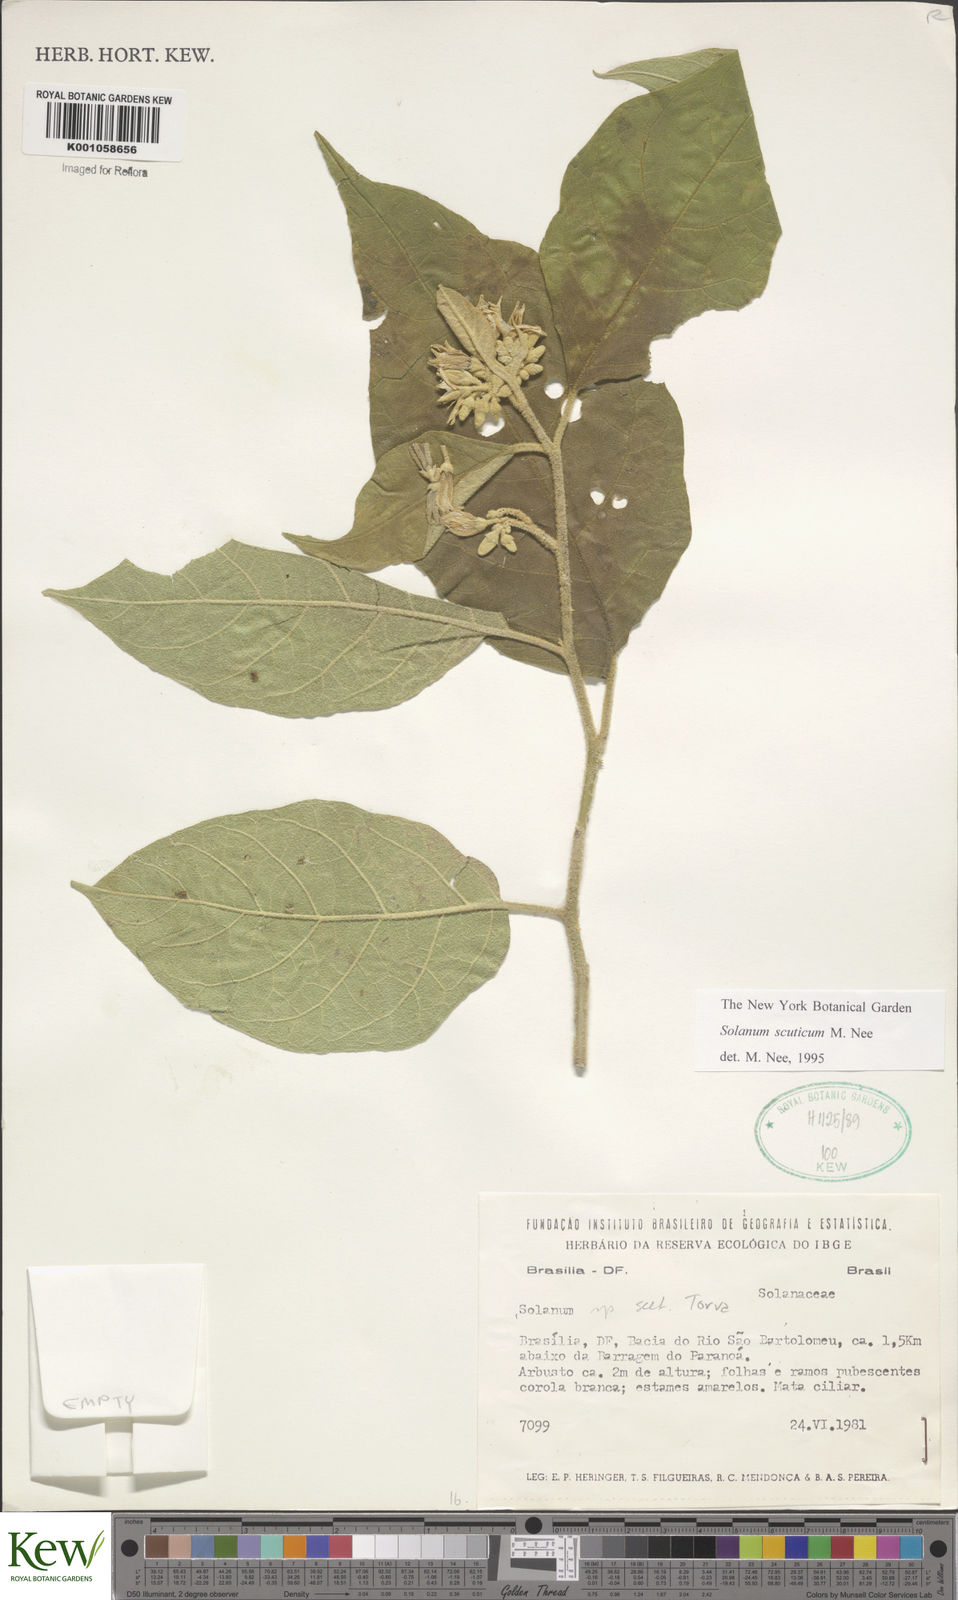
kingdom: Plantae
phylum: Tracheophyta
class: Magnoliopsida
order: Solanales
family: Solanaceae
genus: Solanum
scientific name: Solanum scuticum
